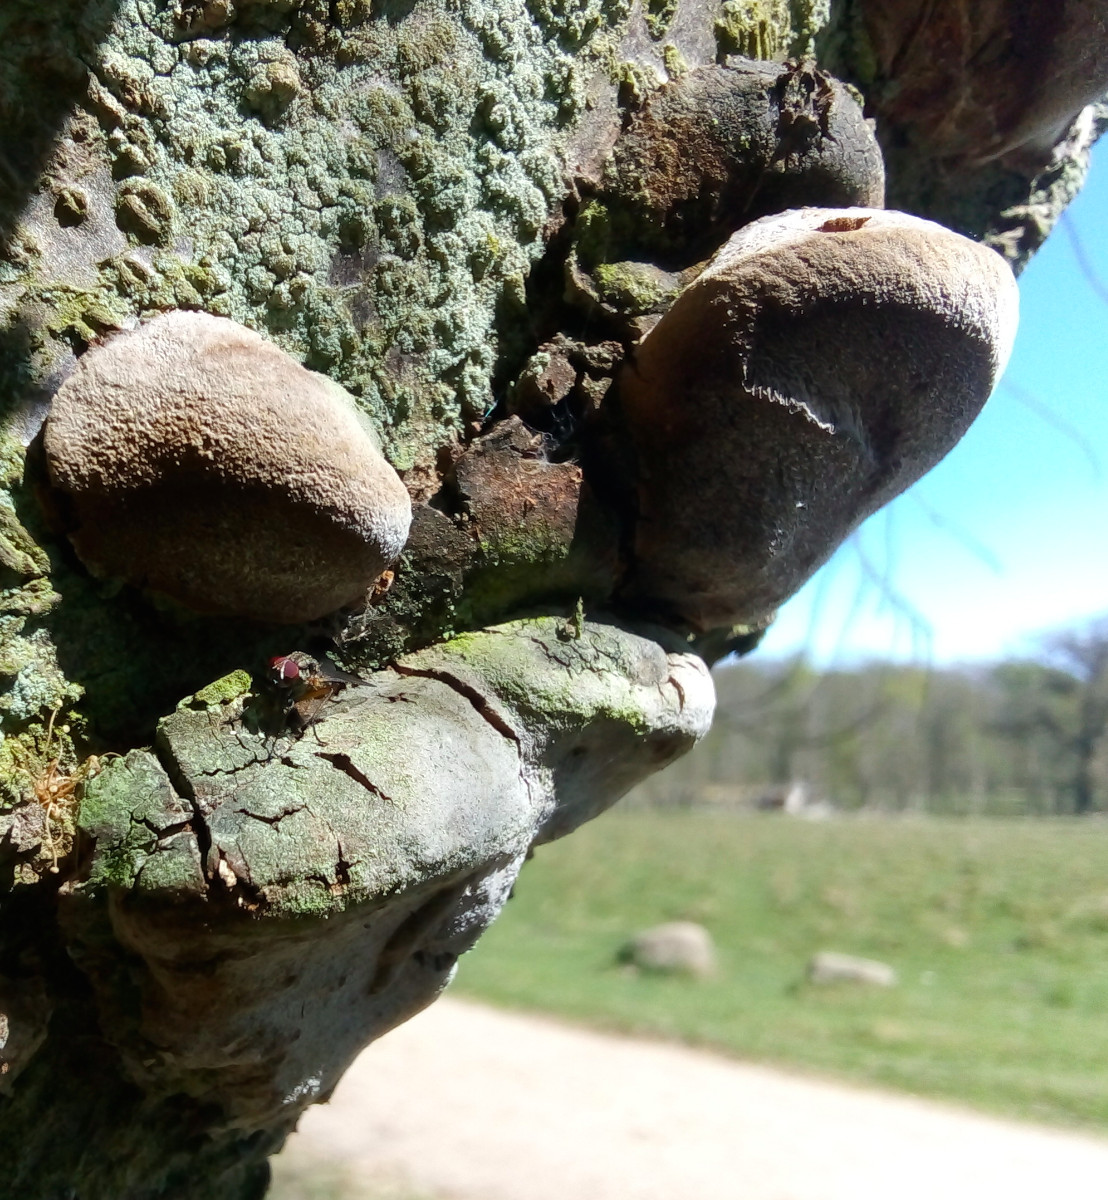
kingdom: Fungi
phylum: Basidiomycota
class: Agaricomycetes
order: Hymenochaetales
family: Hymenochaetaceae
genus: Phellinus
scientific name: Phellinus pomaceus
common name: blomme-ildporesvamp
